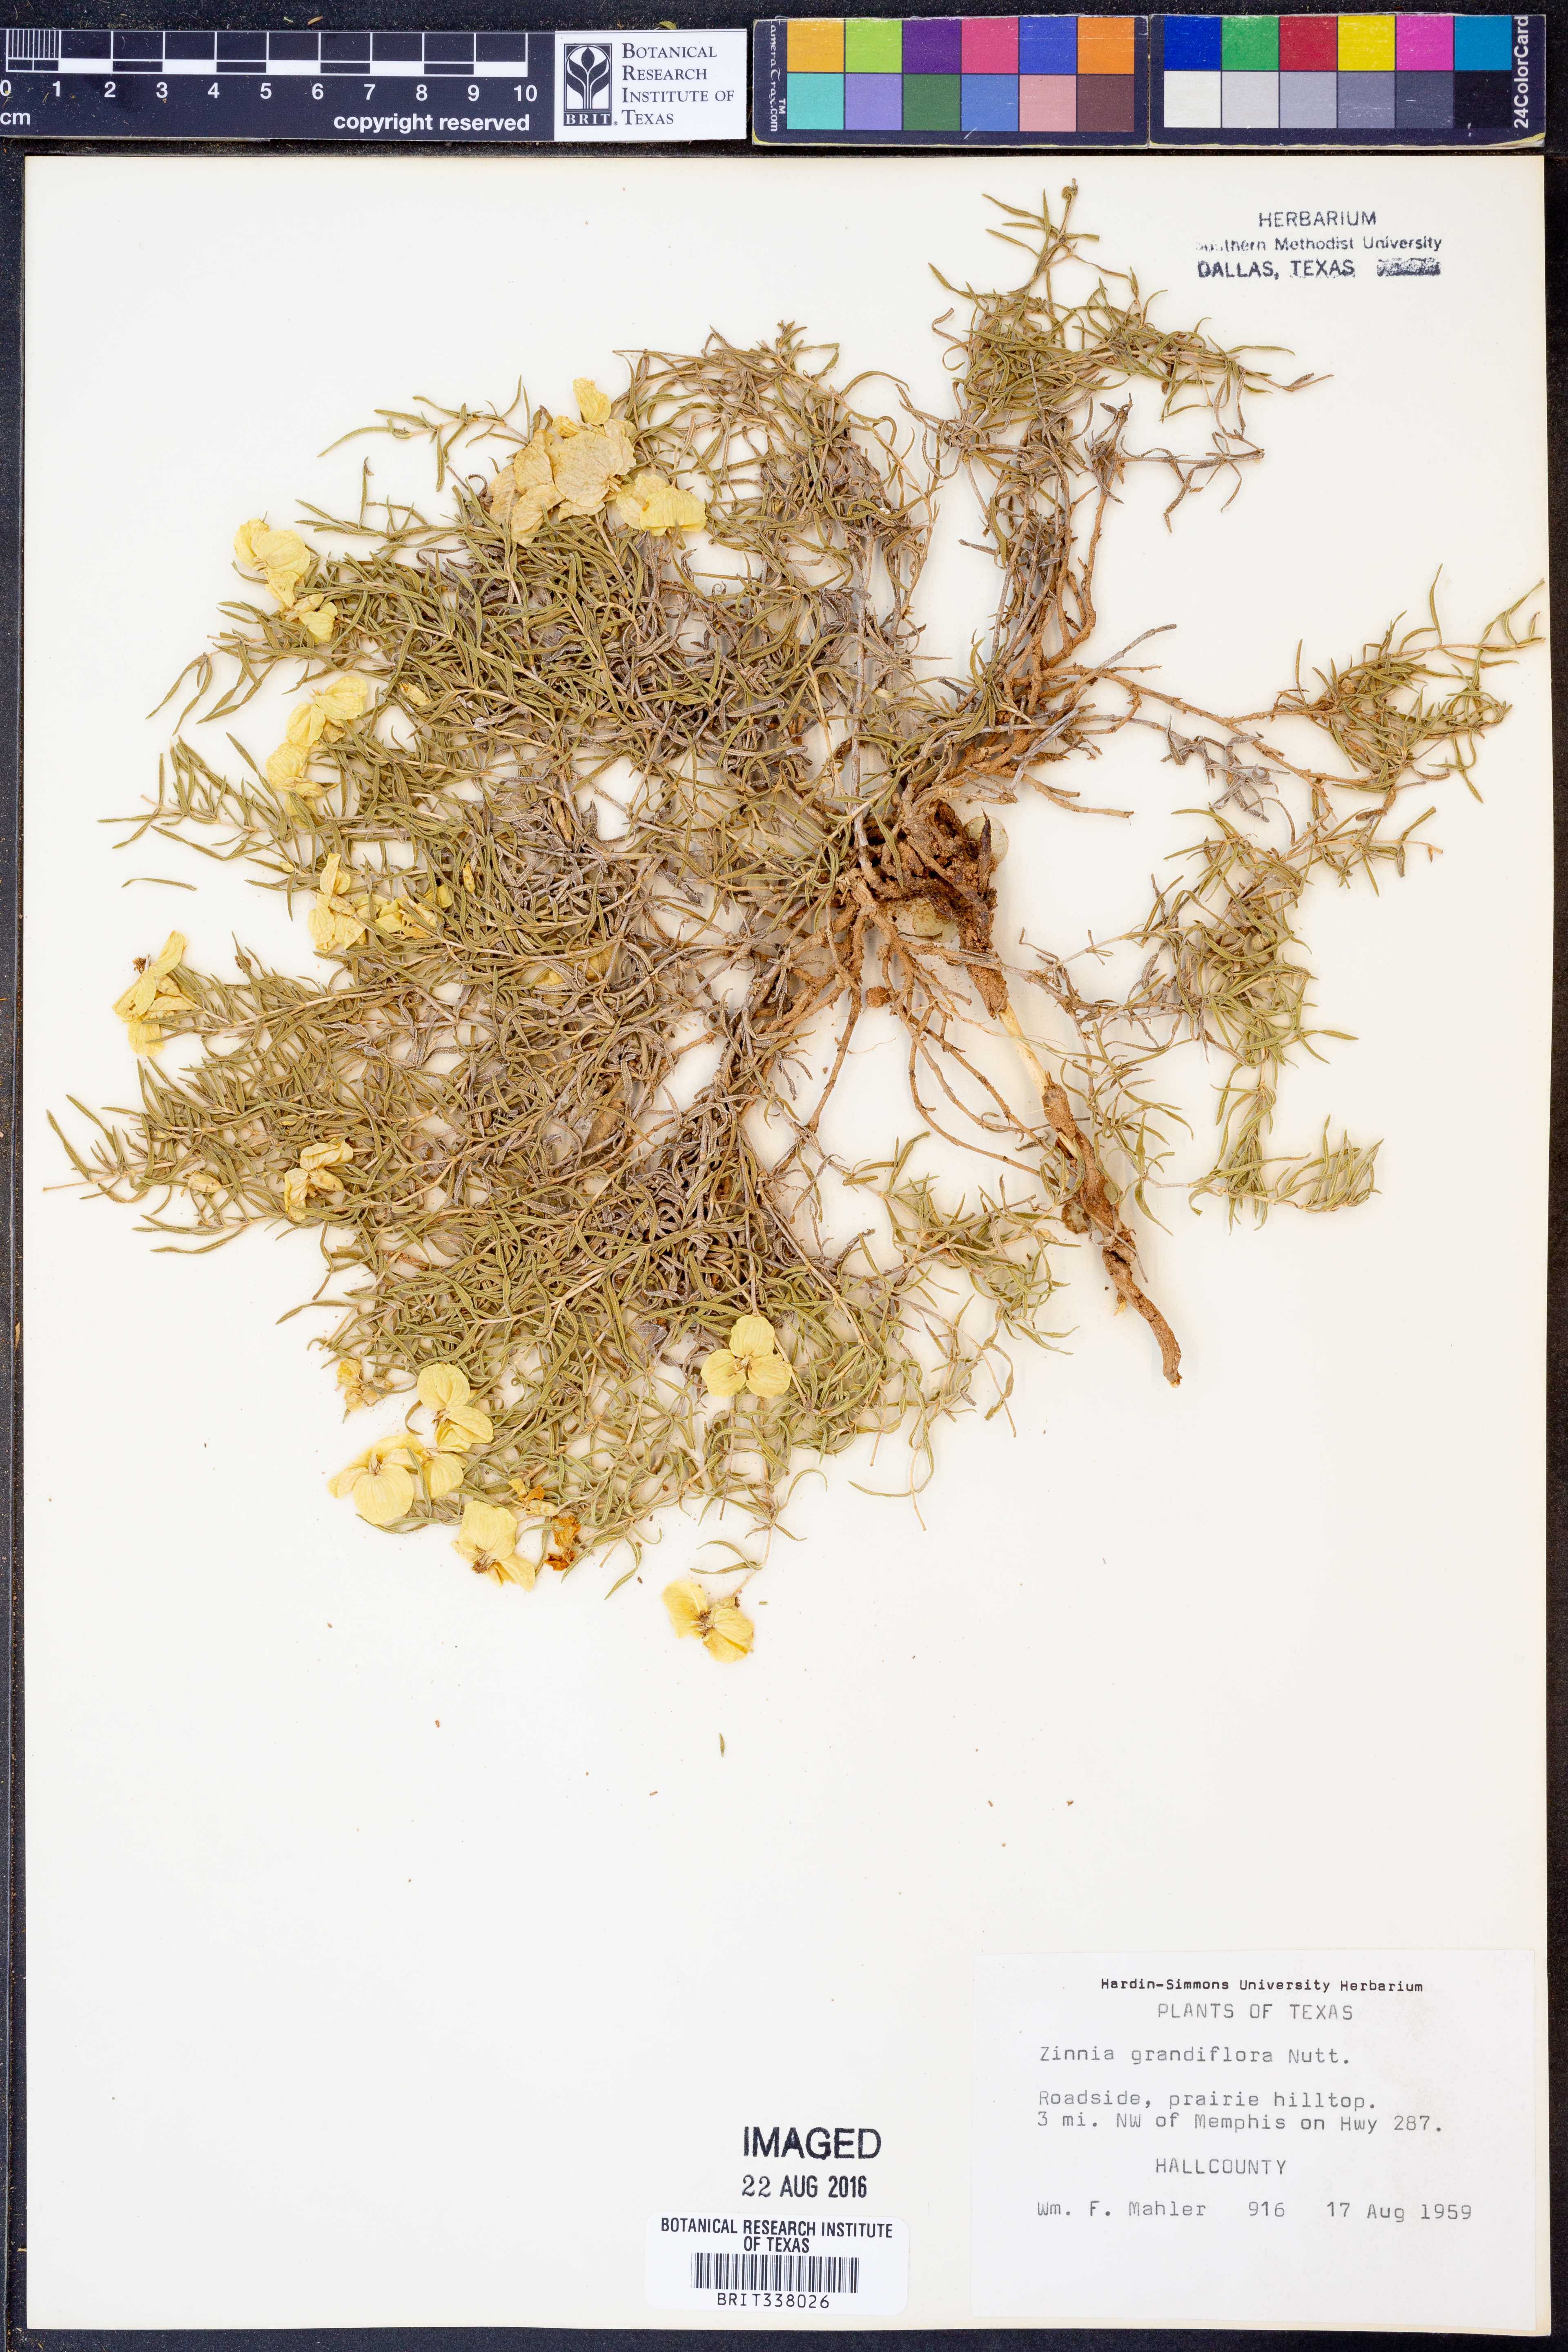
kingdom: Plantae
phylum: Tracheophyta
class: Magnoliopsida
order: Asterales
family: Asteraceae
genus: Zinnia
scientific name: Zinnia grandiflora
